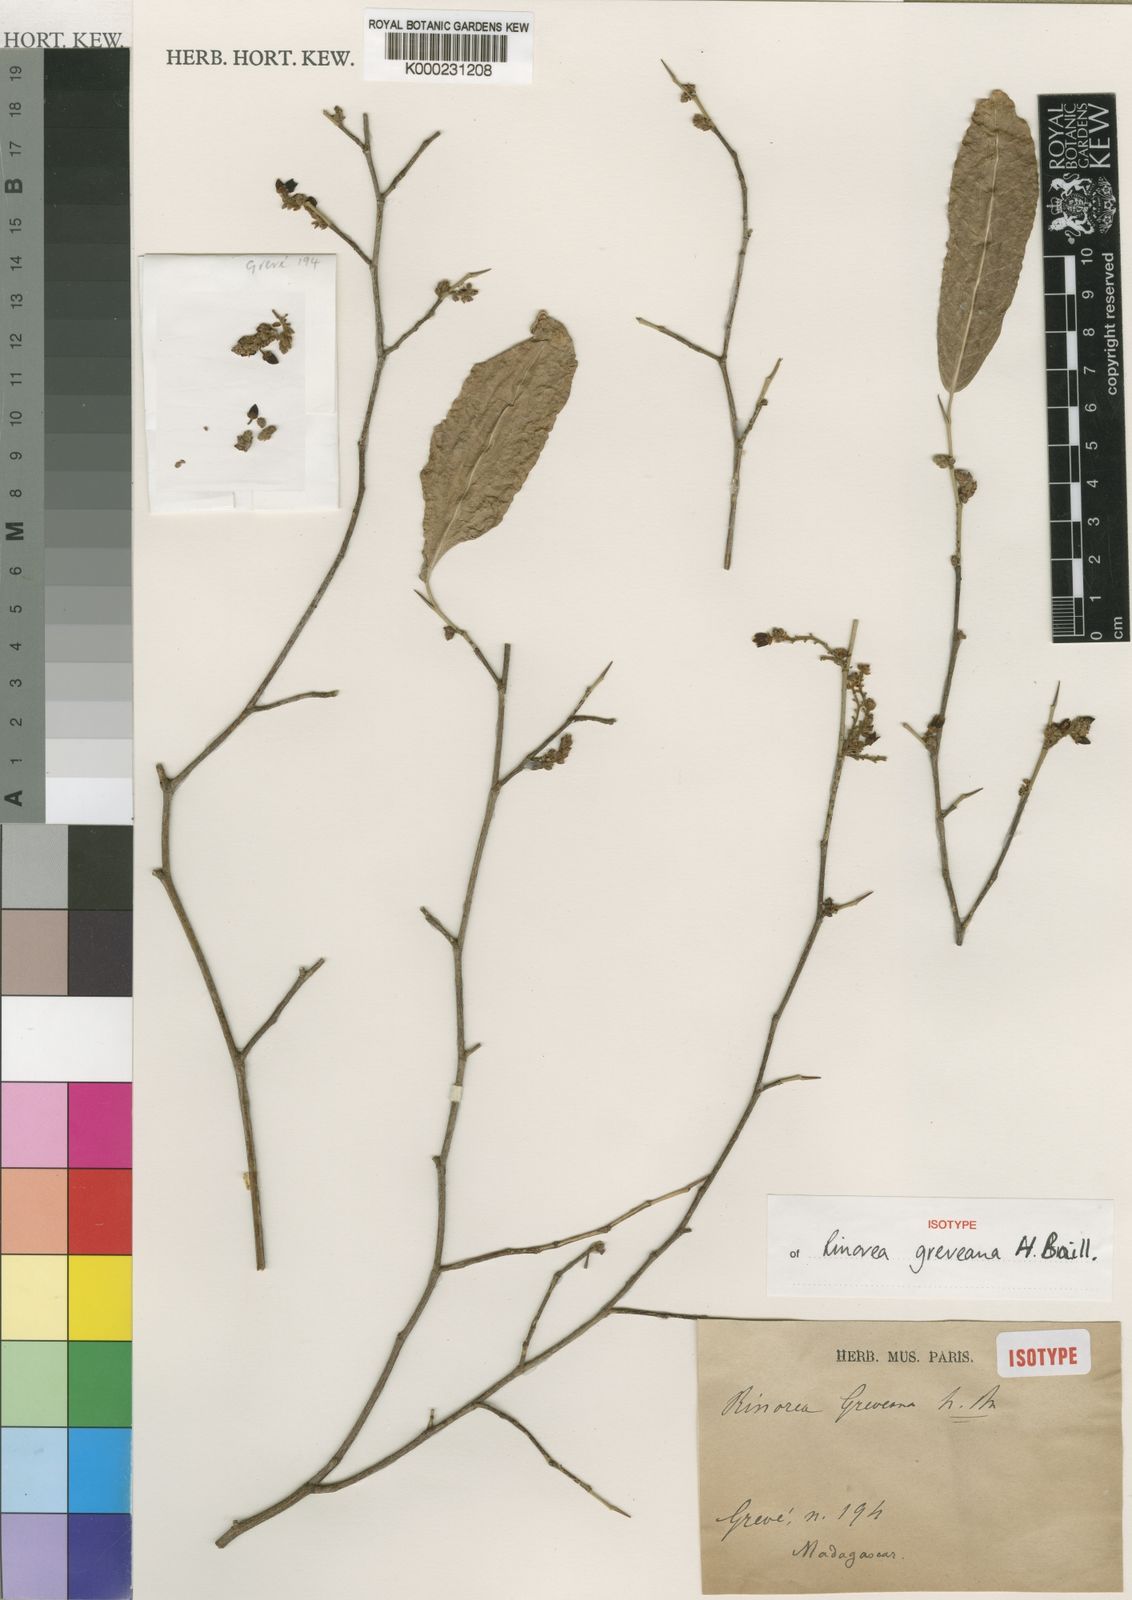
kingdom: Plantae
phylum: Tracheophyta
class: Magnoliopsida
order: Malpighiales
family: Violaceae
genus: Rinorea
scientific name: Rinorea greveana
